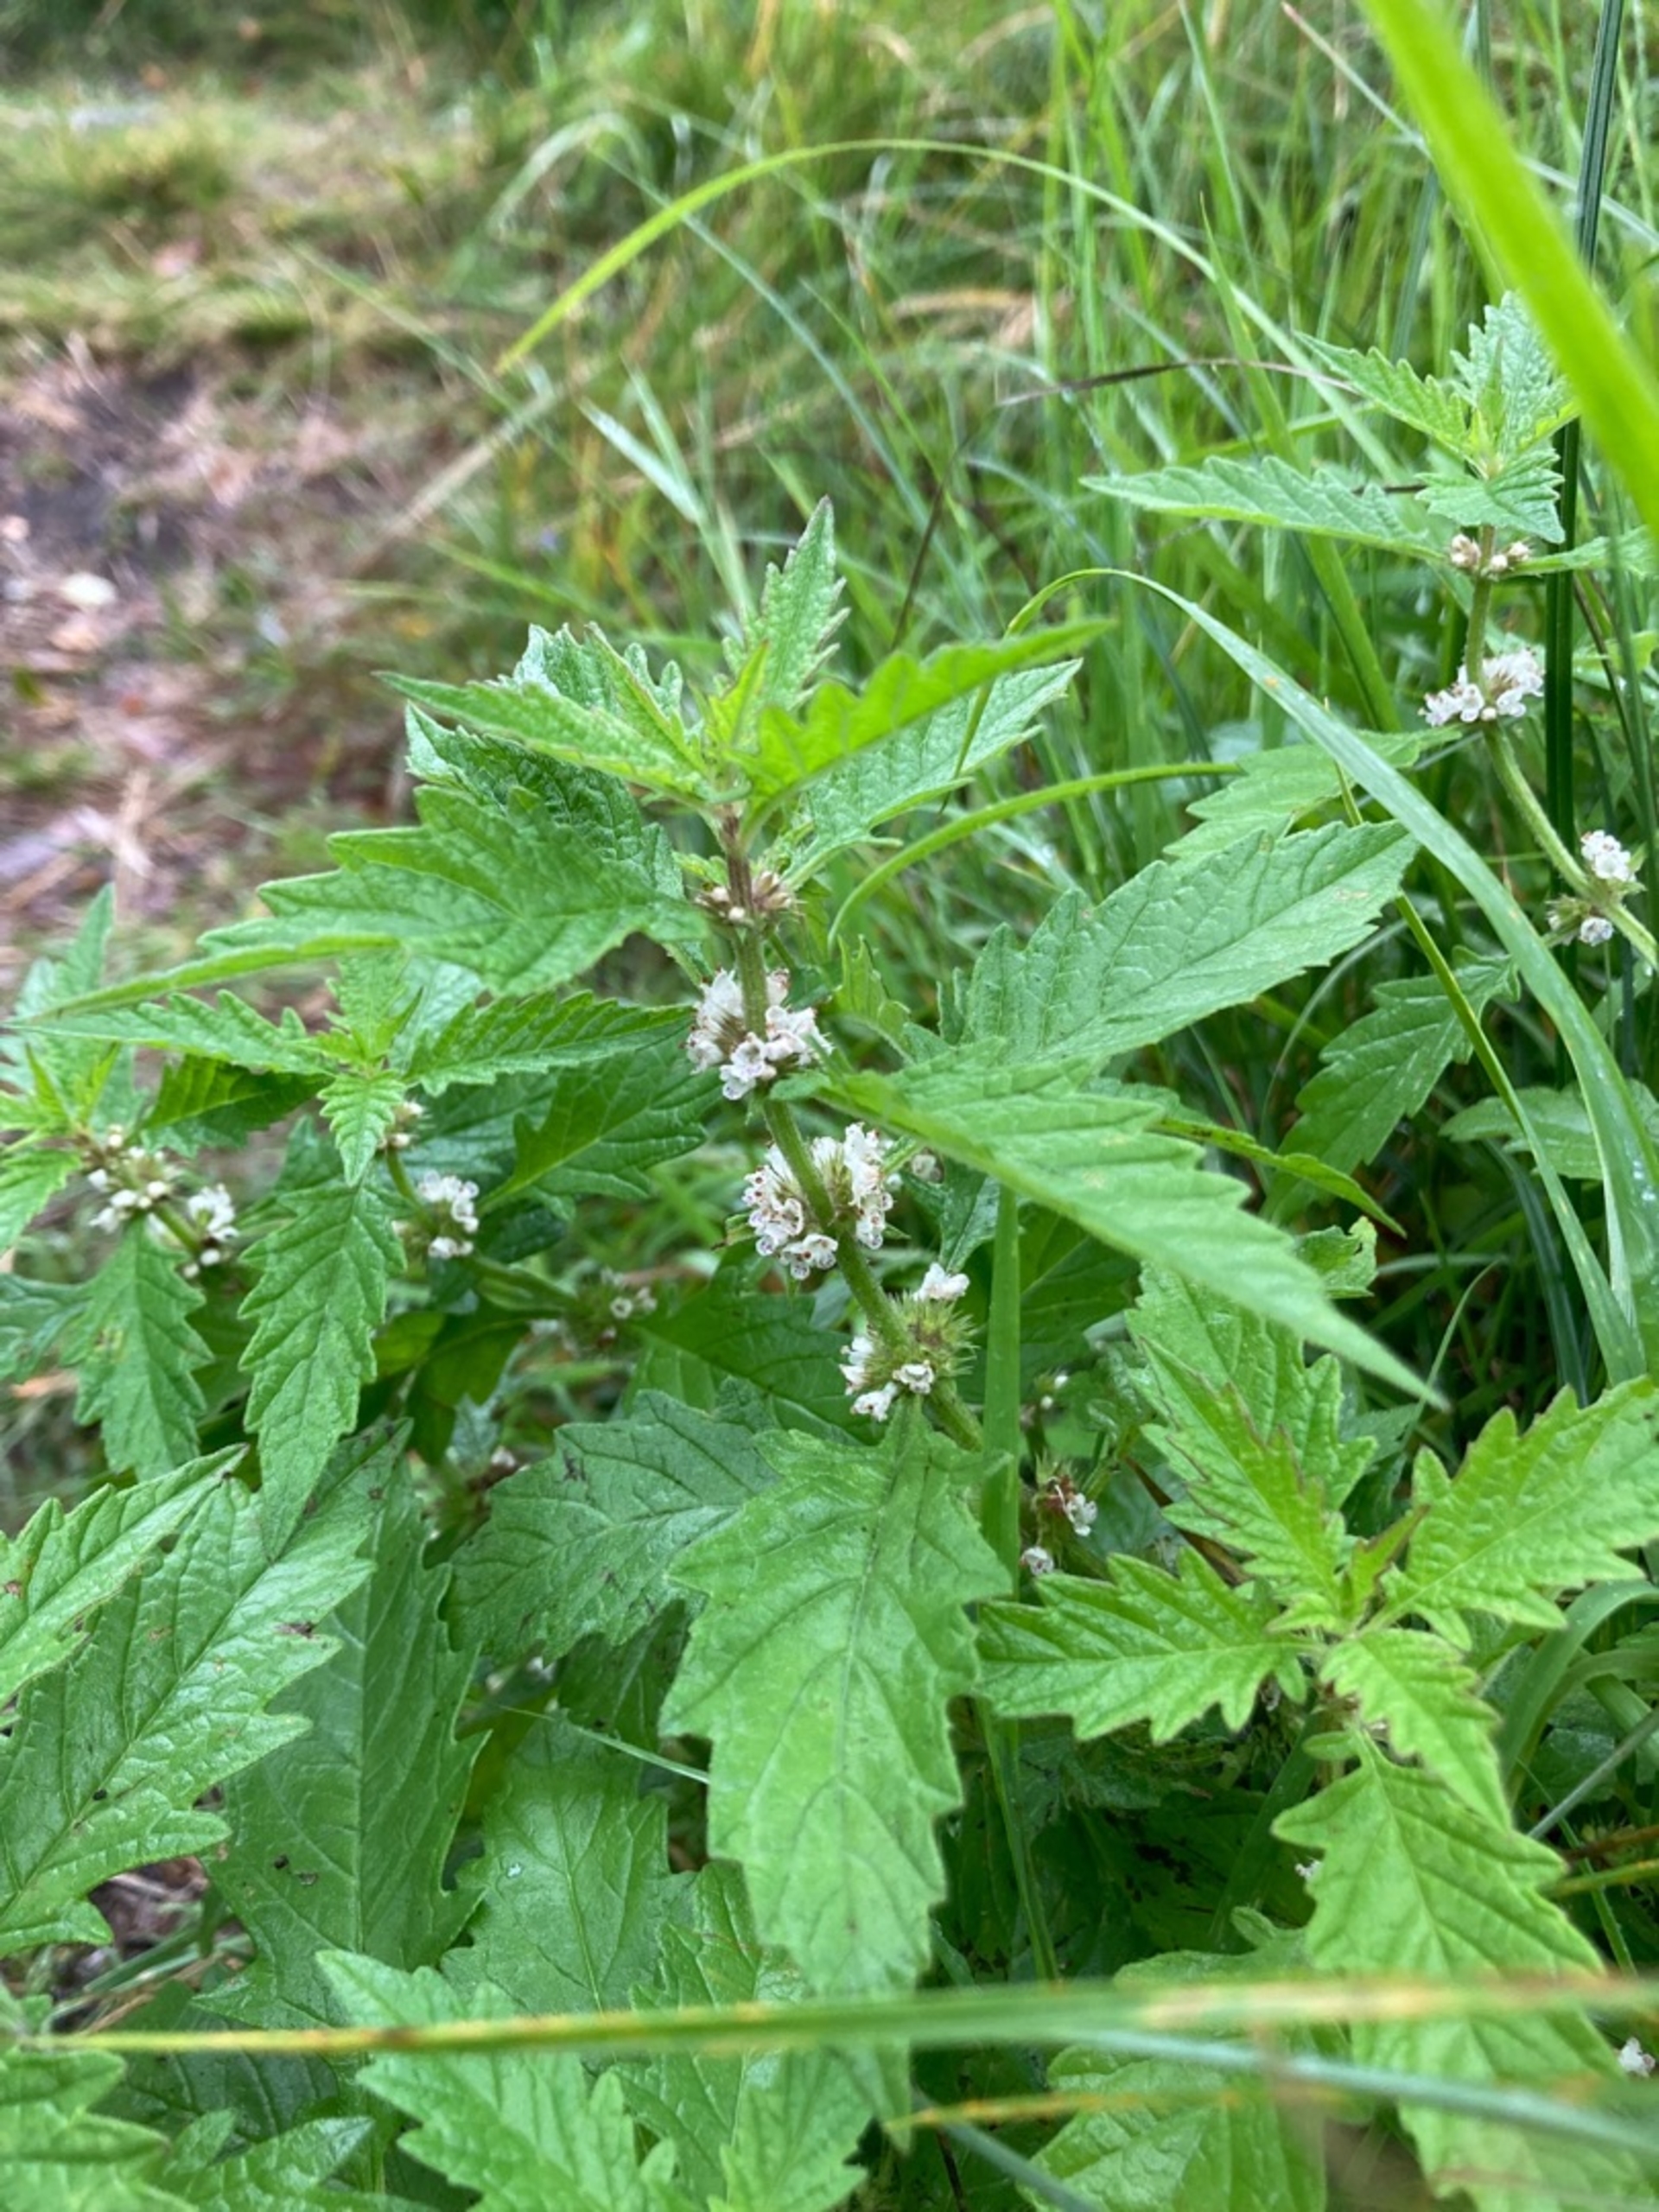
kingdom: Plantae
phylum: Tracheophyta
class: Magnoliopsida
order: Lamiales
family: Lamiaceae
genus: Lycopus
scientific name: Lycopus europaeus
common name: Sværtevæld
